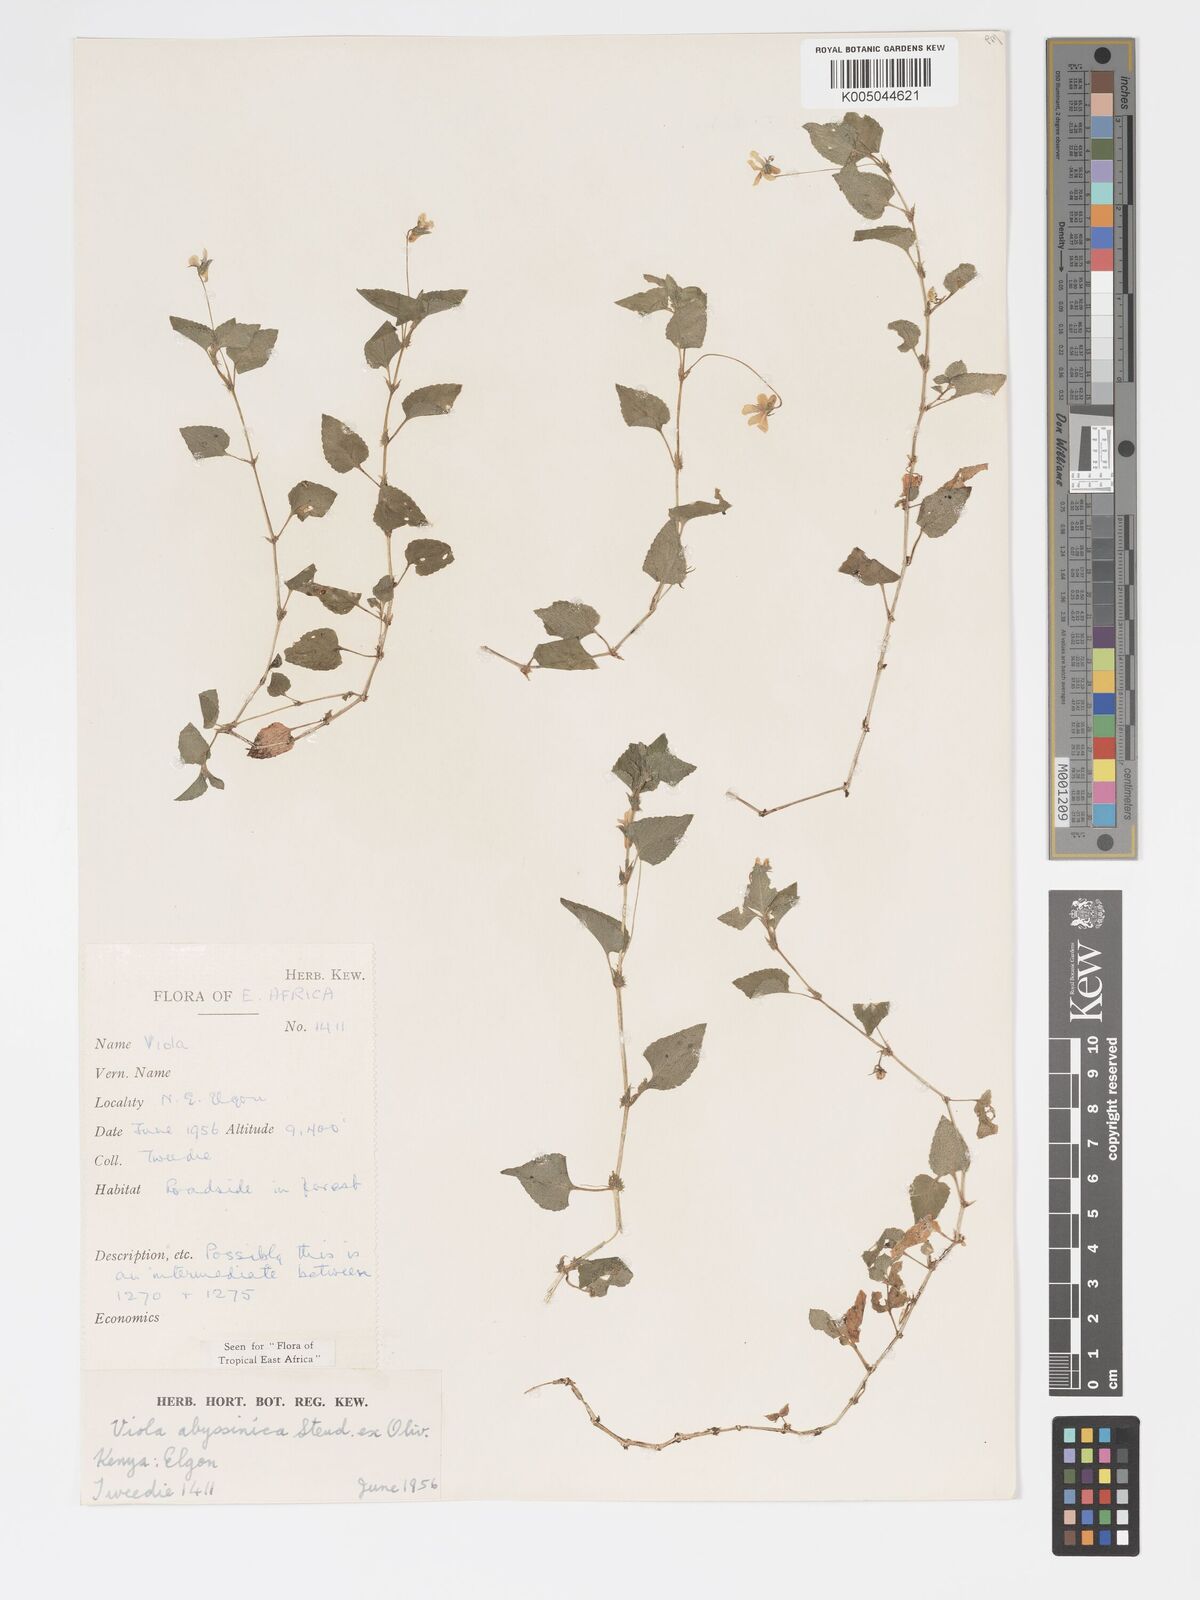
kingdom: Plantae
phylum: Tracheophyta
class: Magnoliopsida
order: Malpighiales
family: Violaceae
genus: Viola
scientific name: Viola abyssinica
